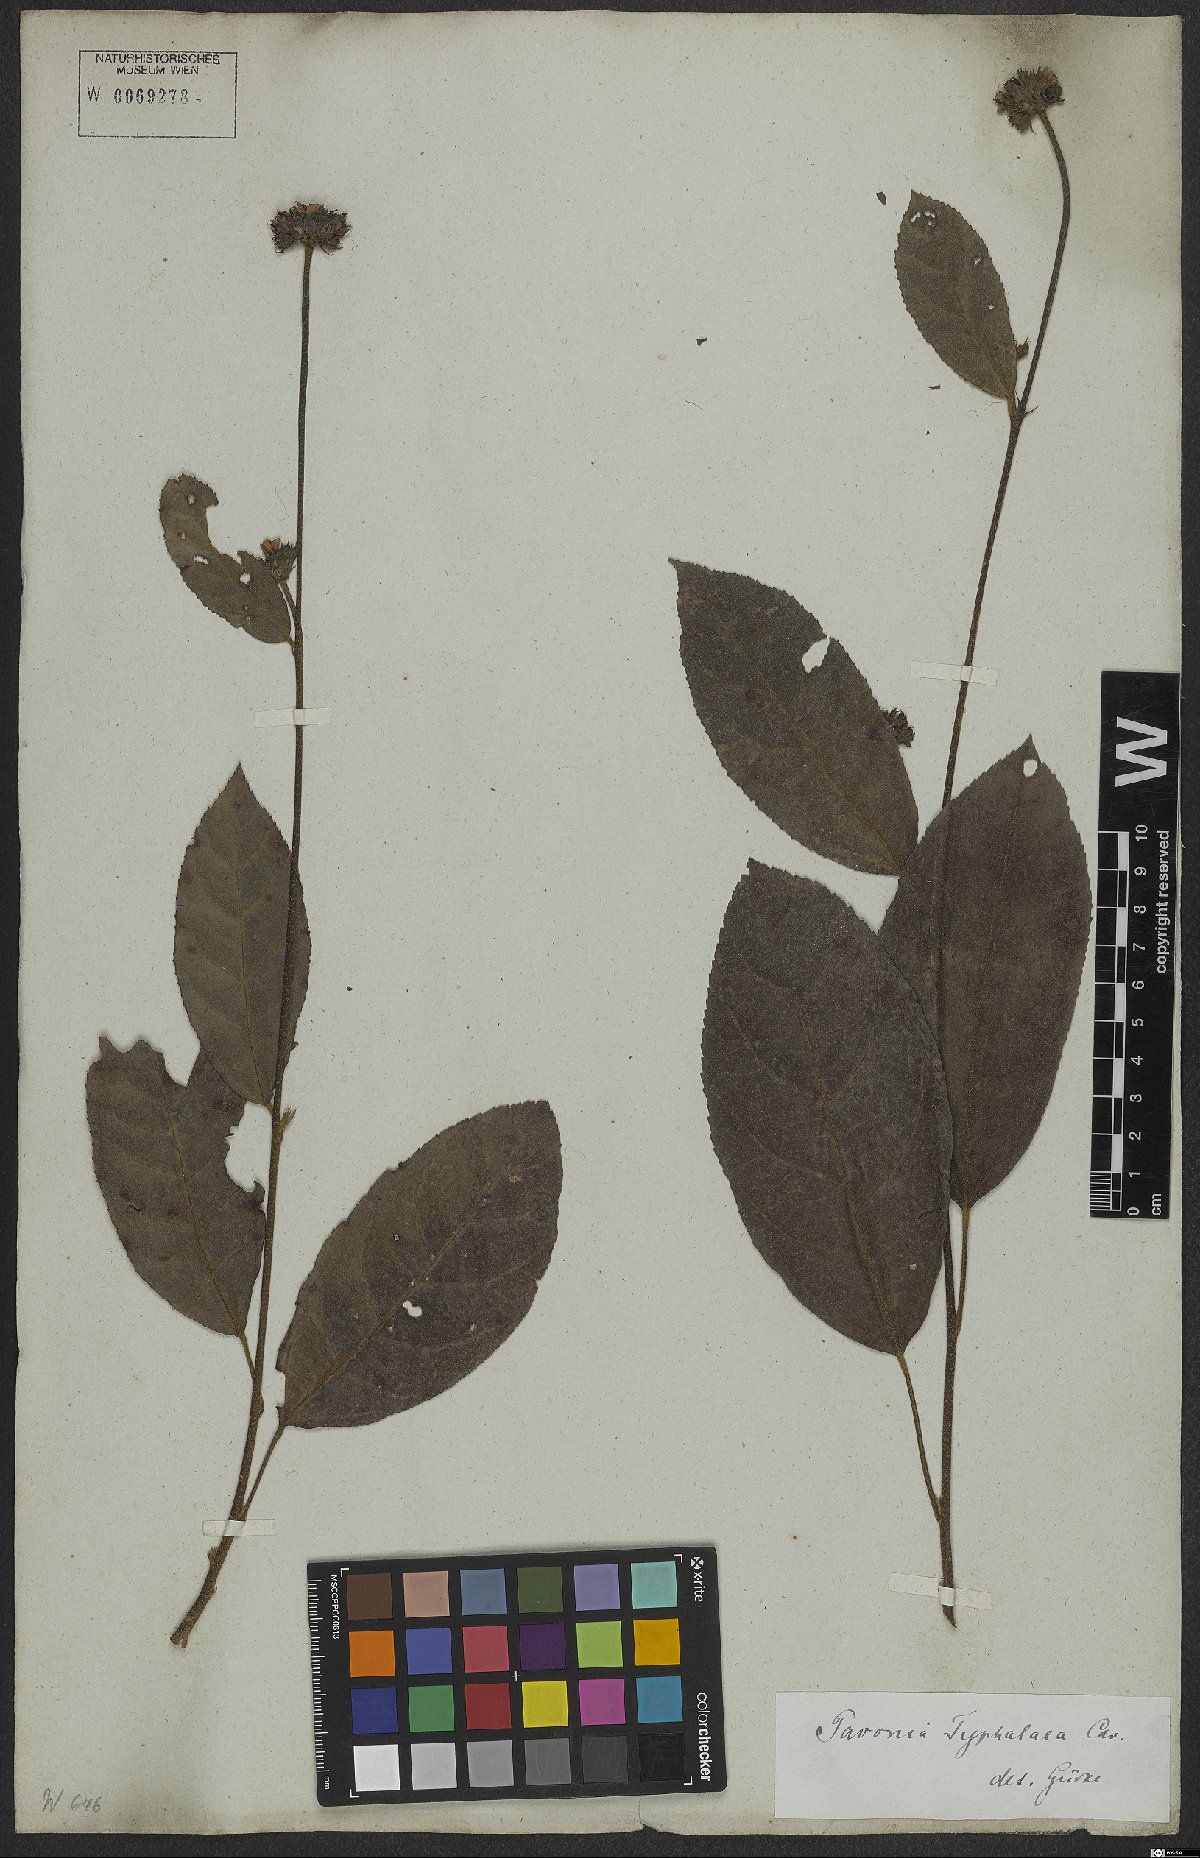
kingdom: Plantae
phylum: Tracheophyta
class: Magnoliopsida
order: Malvales
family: Malvaceae
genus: Pavonia
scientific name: Pavonia fruticosa
